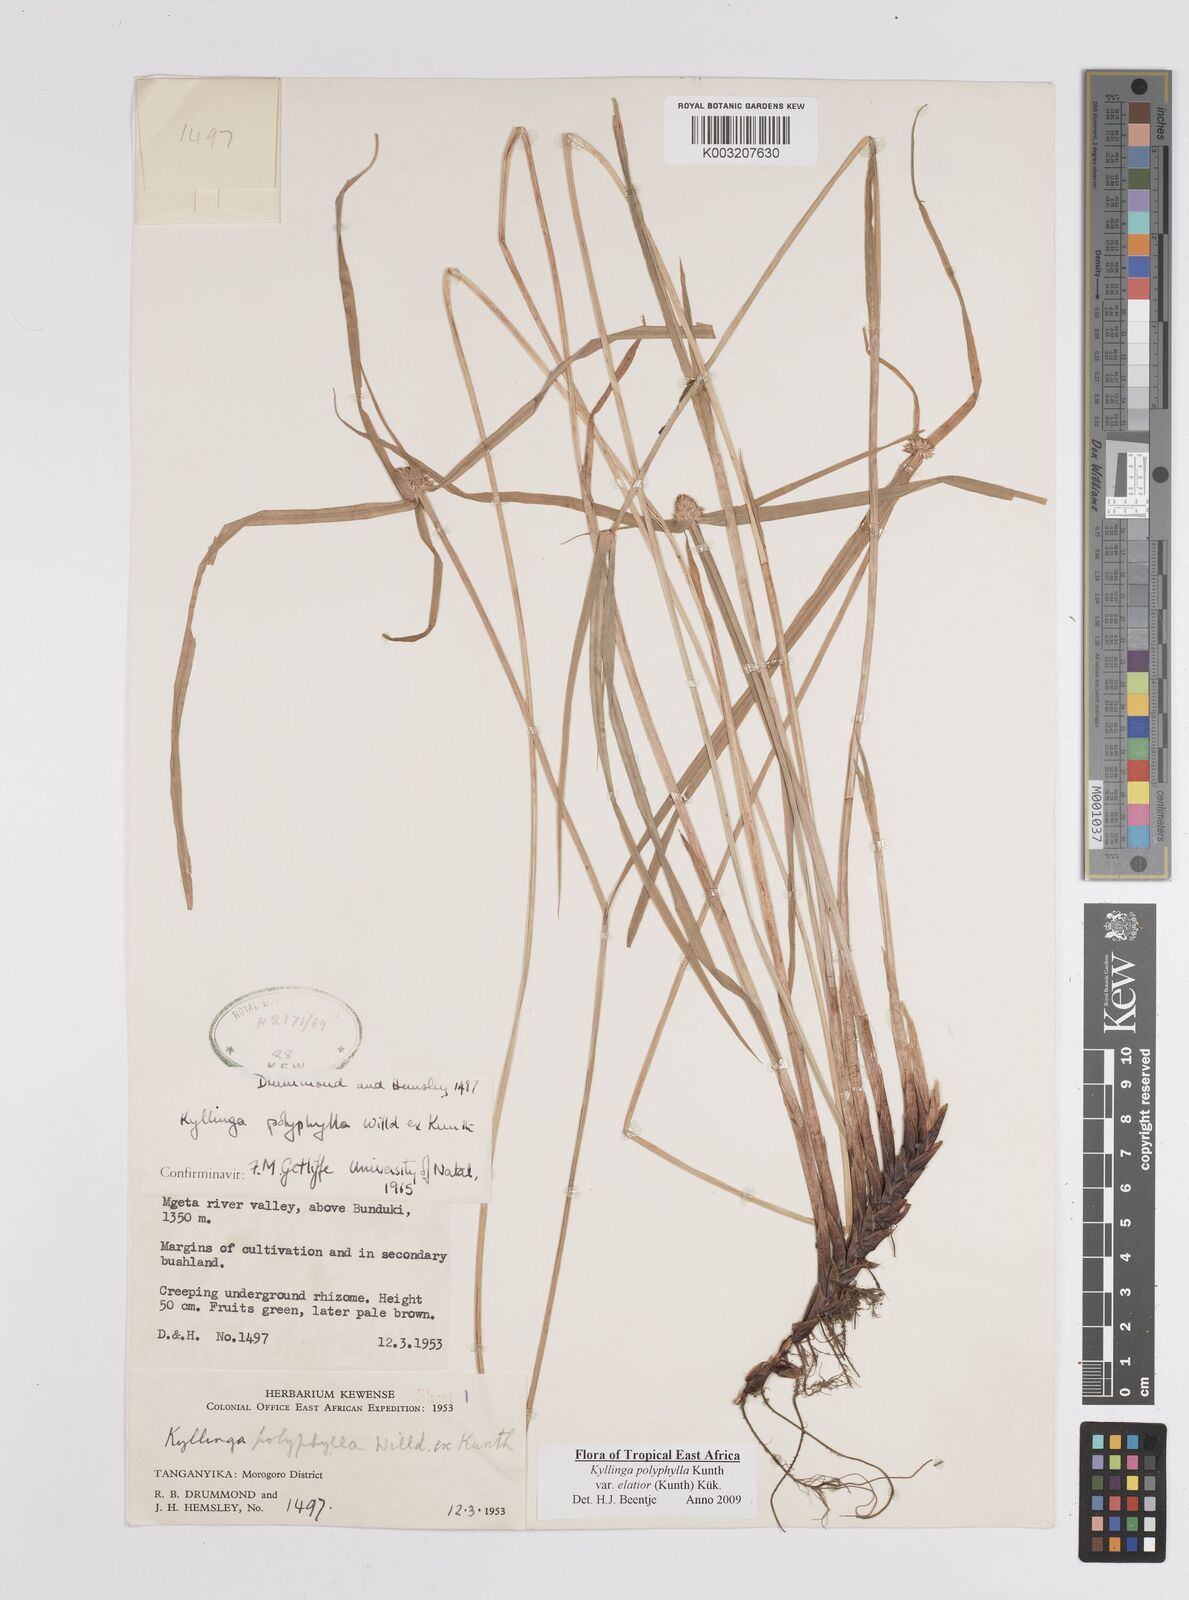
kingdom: Plantae
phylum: Tracheophyta
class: Liliopsida
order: Poales
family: Cyperaceae
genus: Cyperus
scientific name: Cyperus
